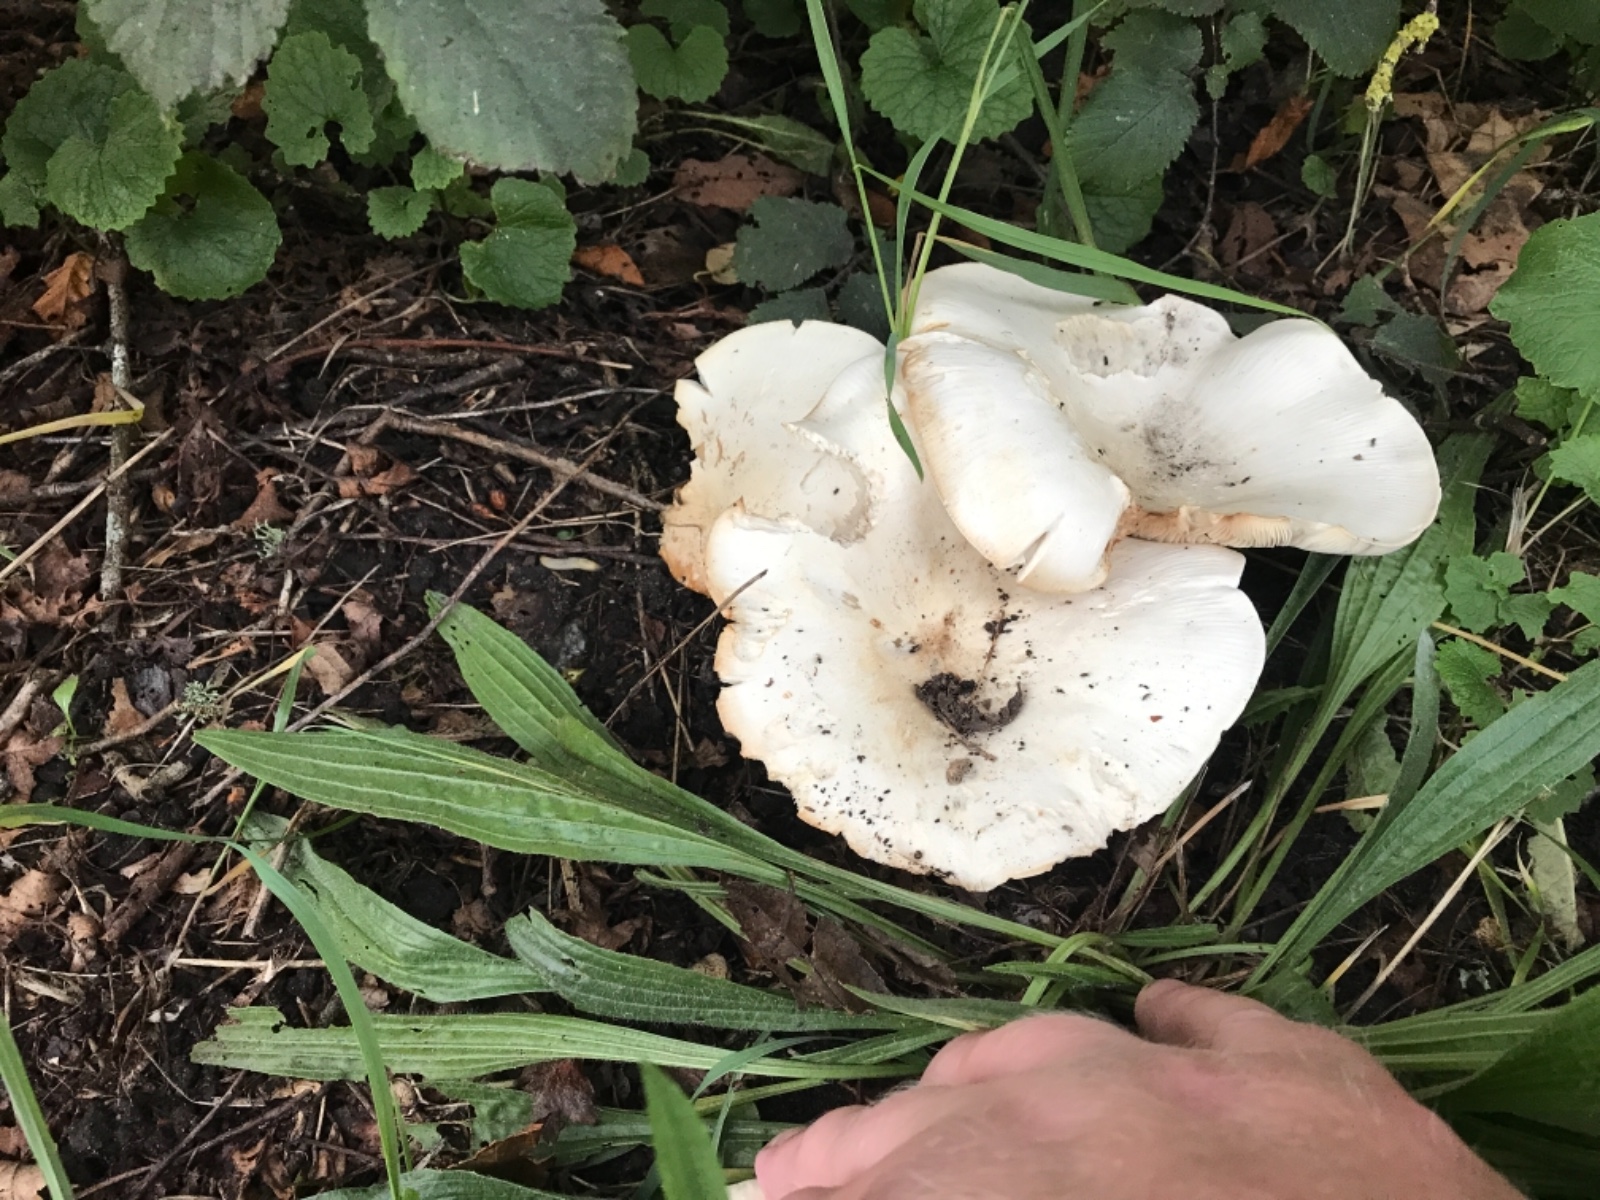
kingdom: Fungi
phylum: Basidiomycota
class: Agaricomycetes
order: Agaricales
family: Tricholomataceae
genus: Aspropaxillus
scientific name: Aspropaxillus giganteus
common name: kæmpe-tragtridderhat
